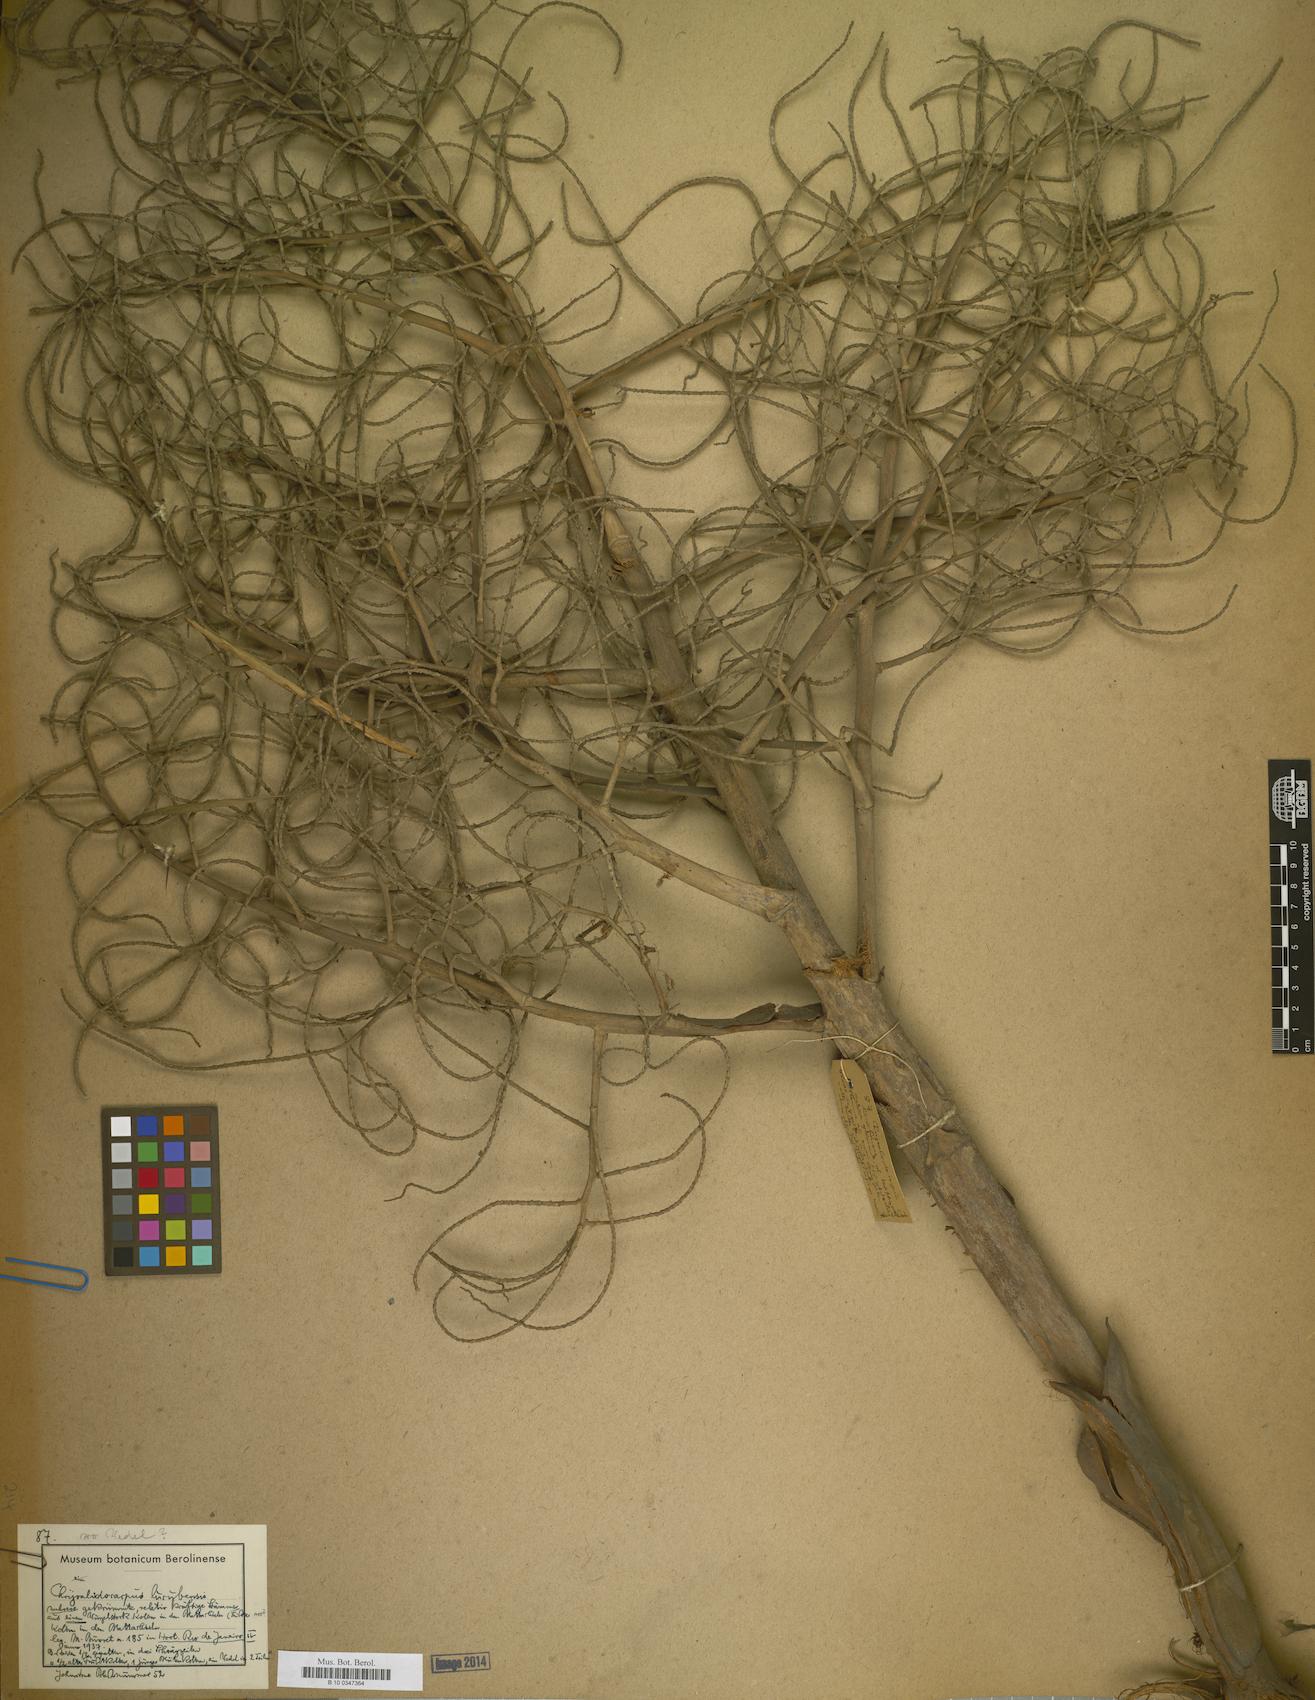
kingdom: Plantae
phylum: Tracheophyta
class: Liliopsida
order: Arecales
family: Arecaceae
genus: Dypsis
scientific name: Dypsis
